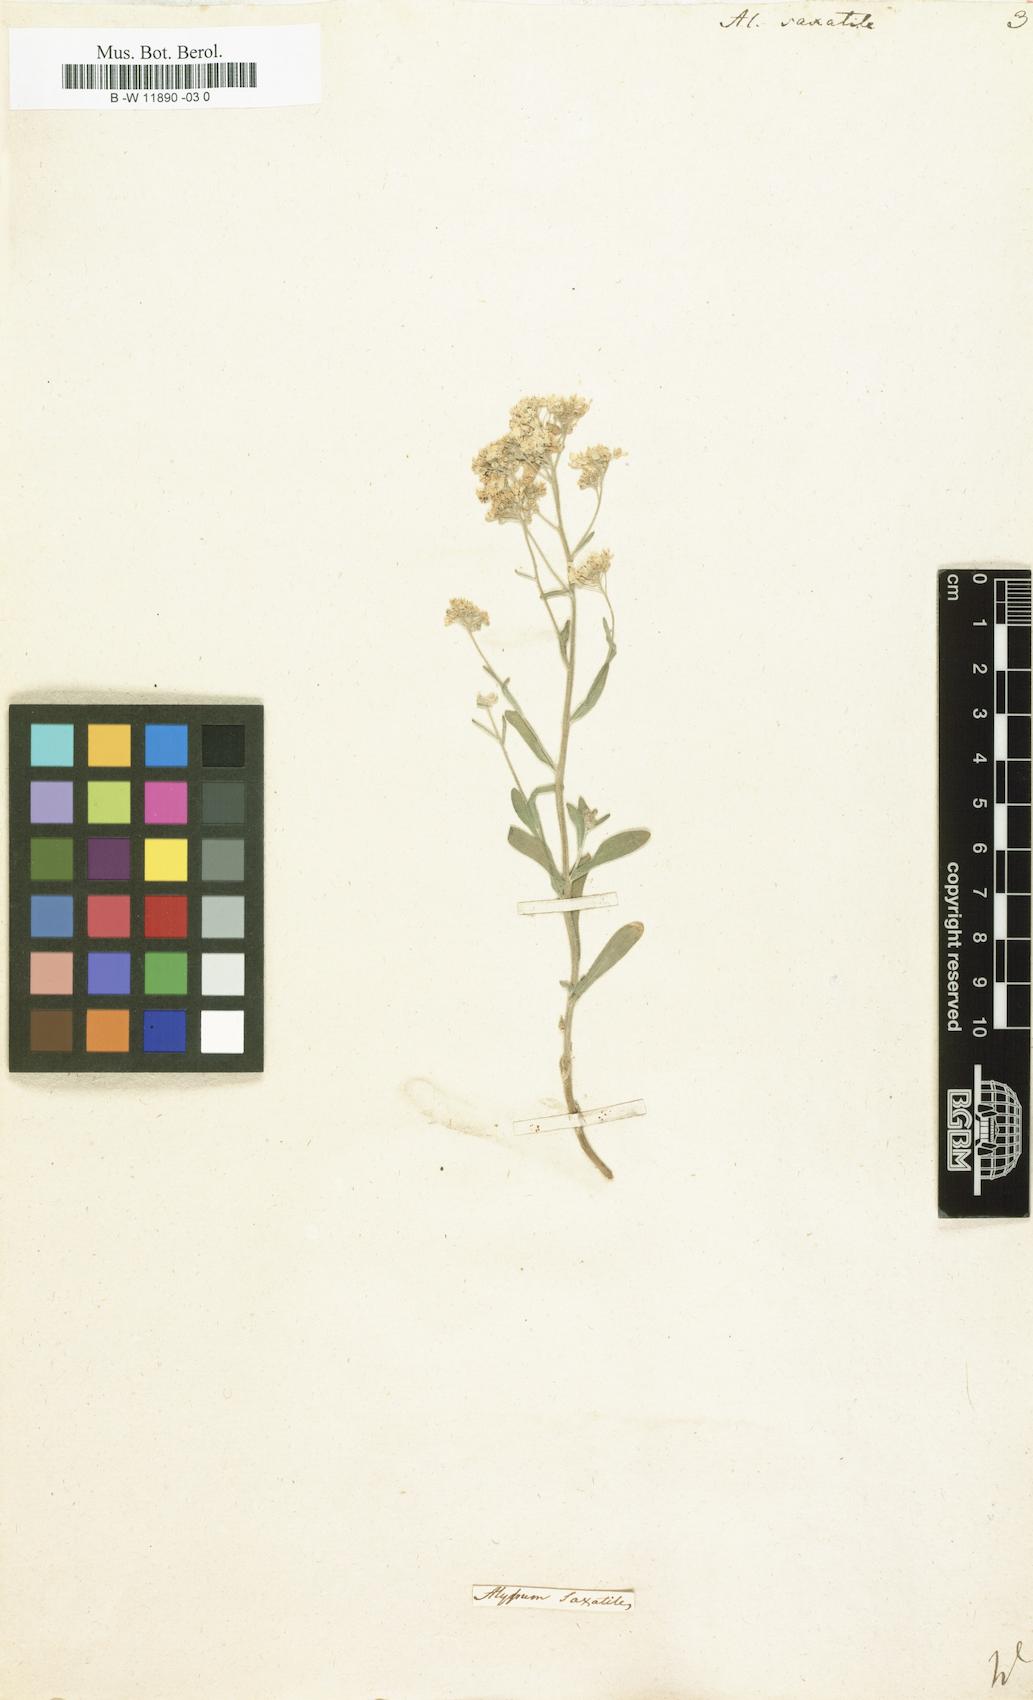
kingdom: Plantae
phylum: Tracheophyta
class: Magnoliopsida
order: Brassicales
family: Brassicaceae
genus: Aurinia
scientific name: Aurinia saxatilis
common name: Golden-tuft alyssum
